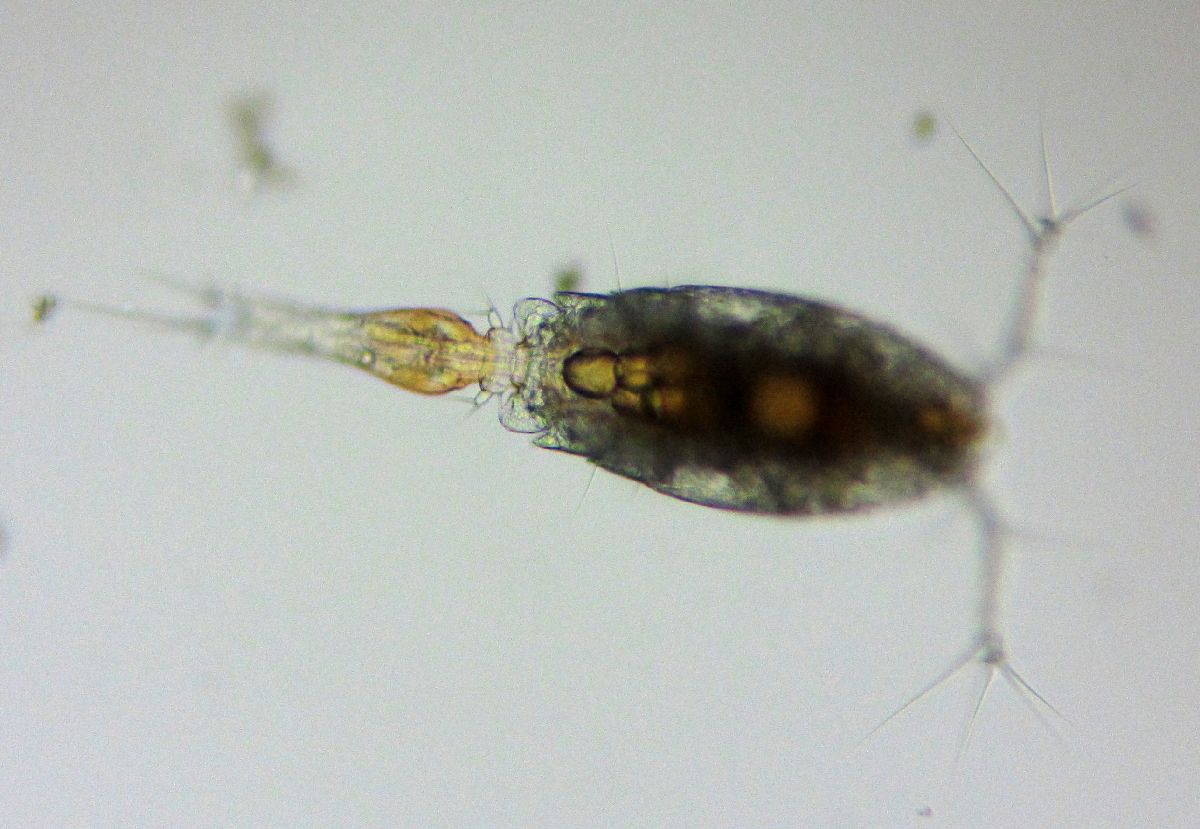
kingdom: Animalia
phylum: Arthropoda
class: Copepoda
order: Cyclopoida
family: Oncaeidae
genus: Triconia
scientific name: Triconia borealis
